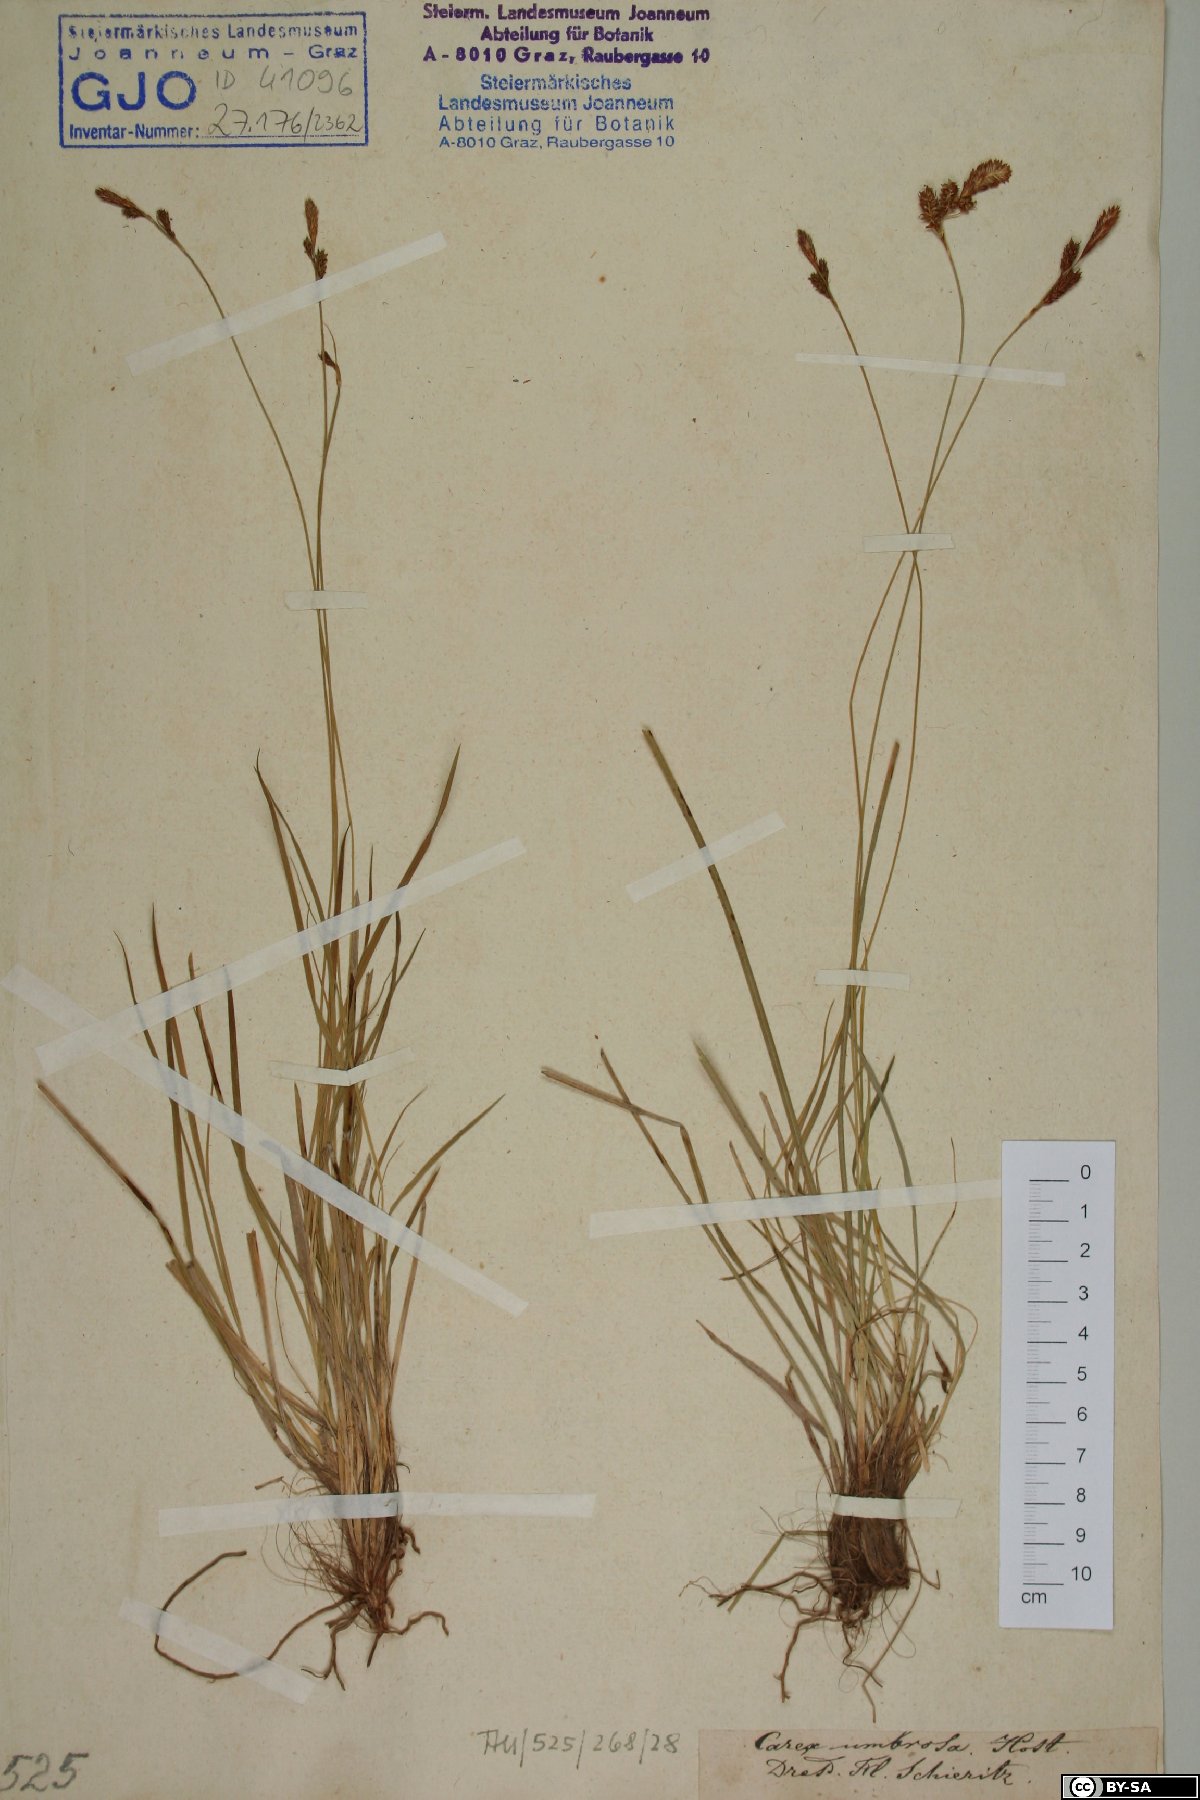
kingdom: Plantae
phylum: Tracheophyta
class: Liliopsida
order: Poales
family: Cyperaceae
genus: Carex
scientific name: Carex umbrosa
